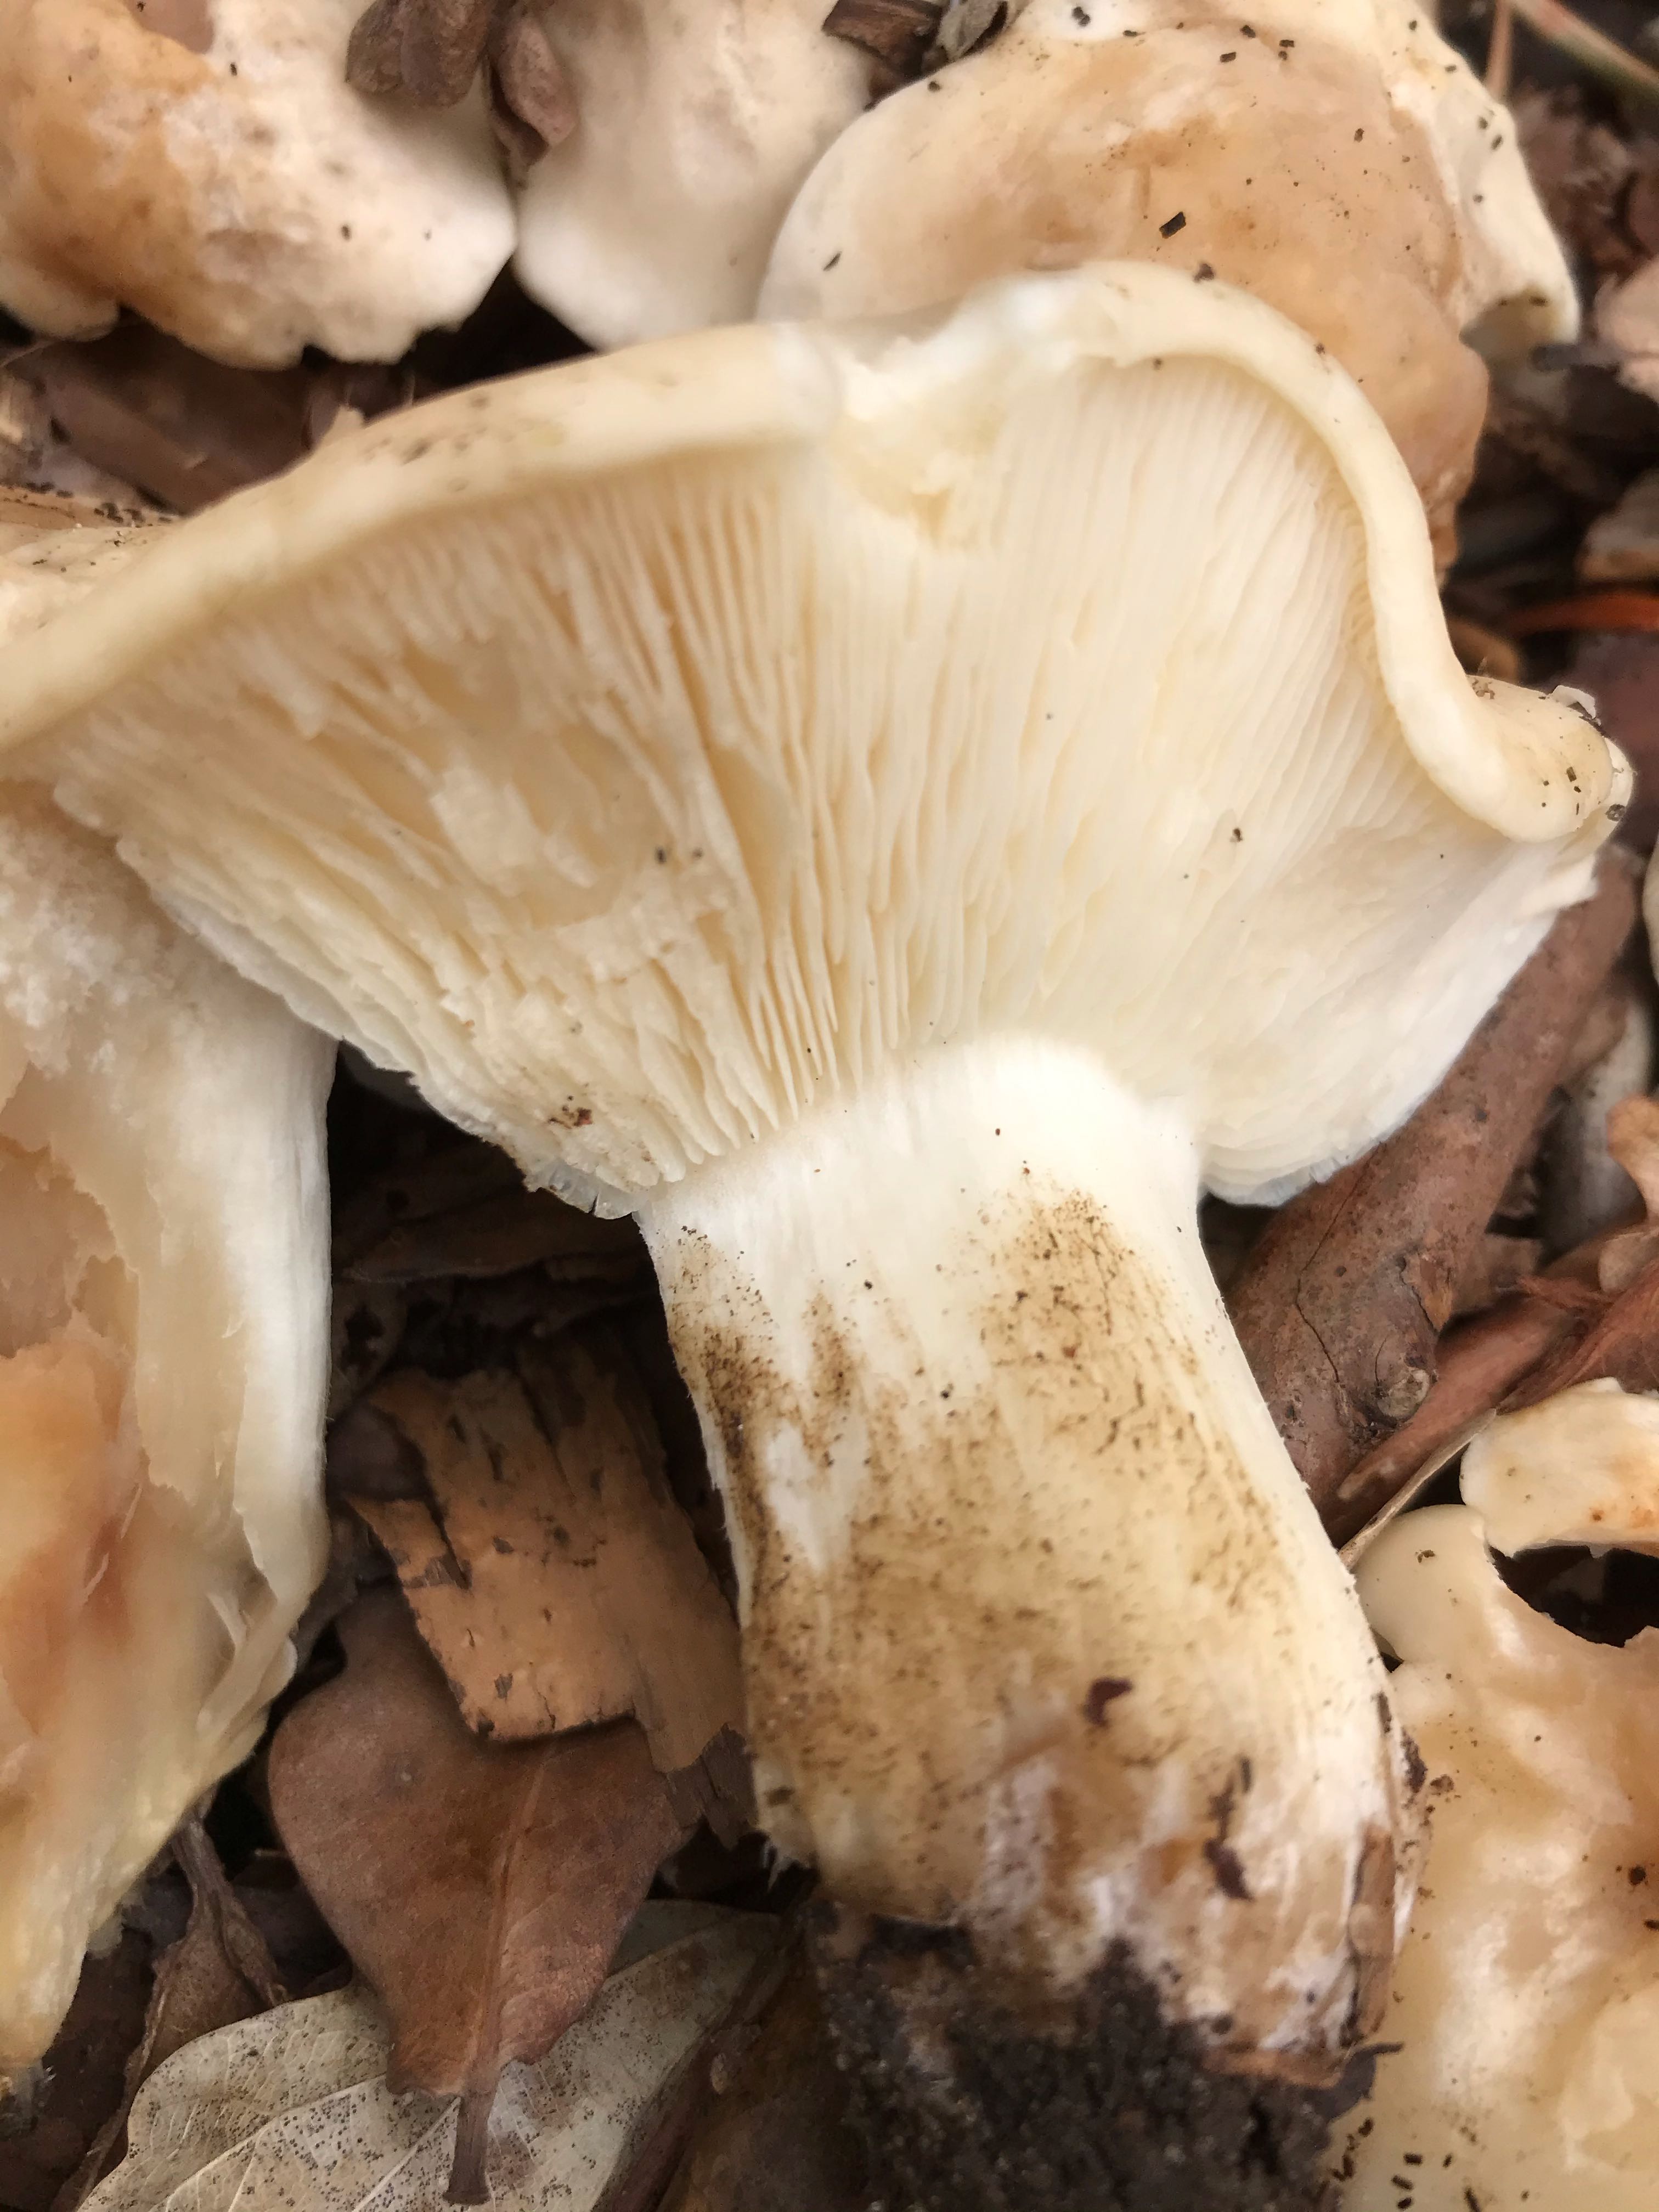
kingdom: Fungi
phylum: Basidiomycota
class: Agaricomycetes
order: Agaricales
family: Lyophyllaceae
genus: Calocybe
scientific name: Calocybe gambosa
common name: vårmusseron
